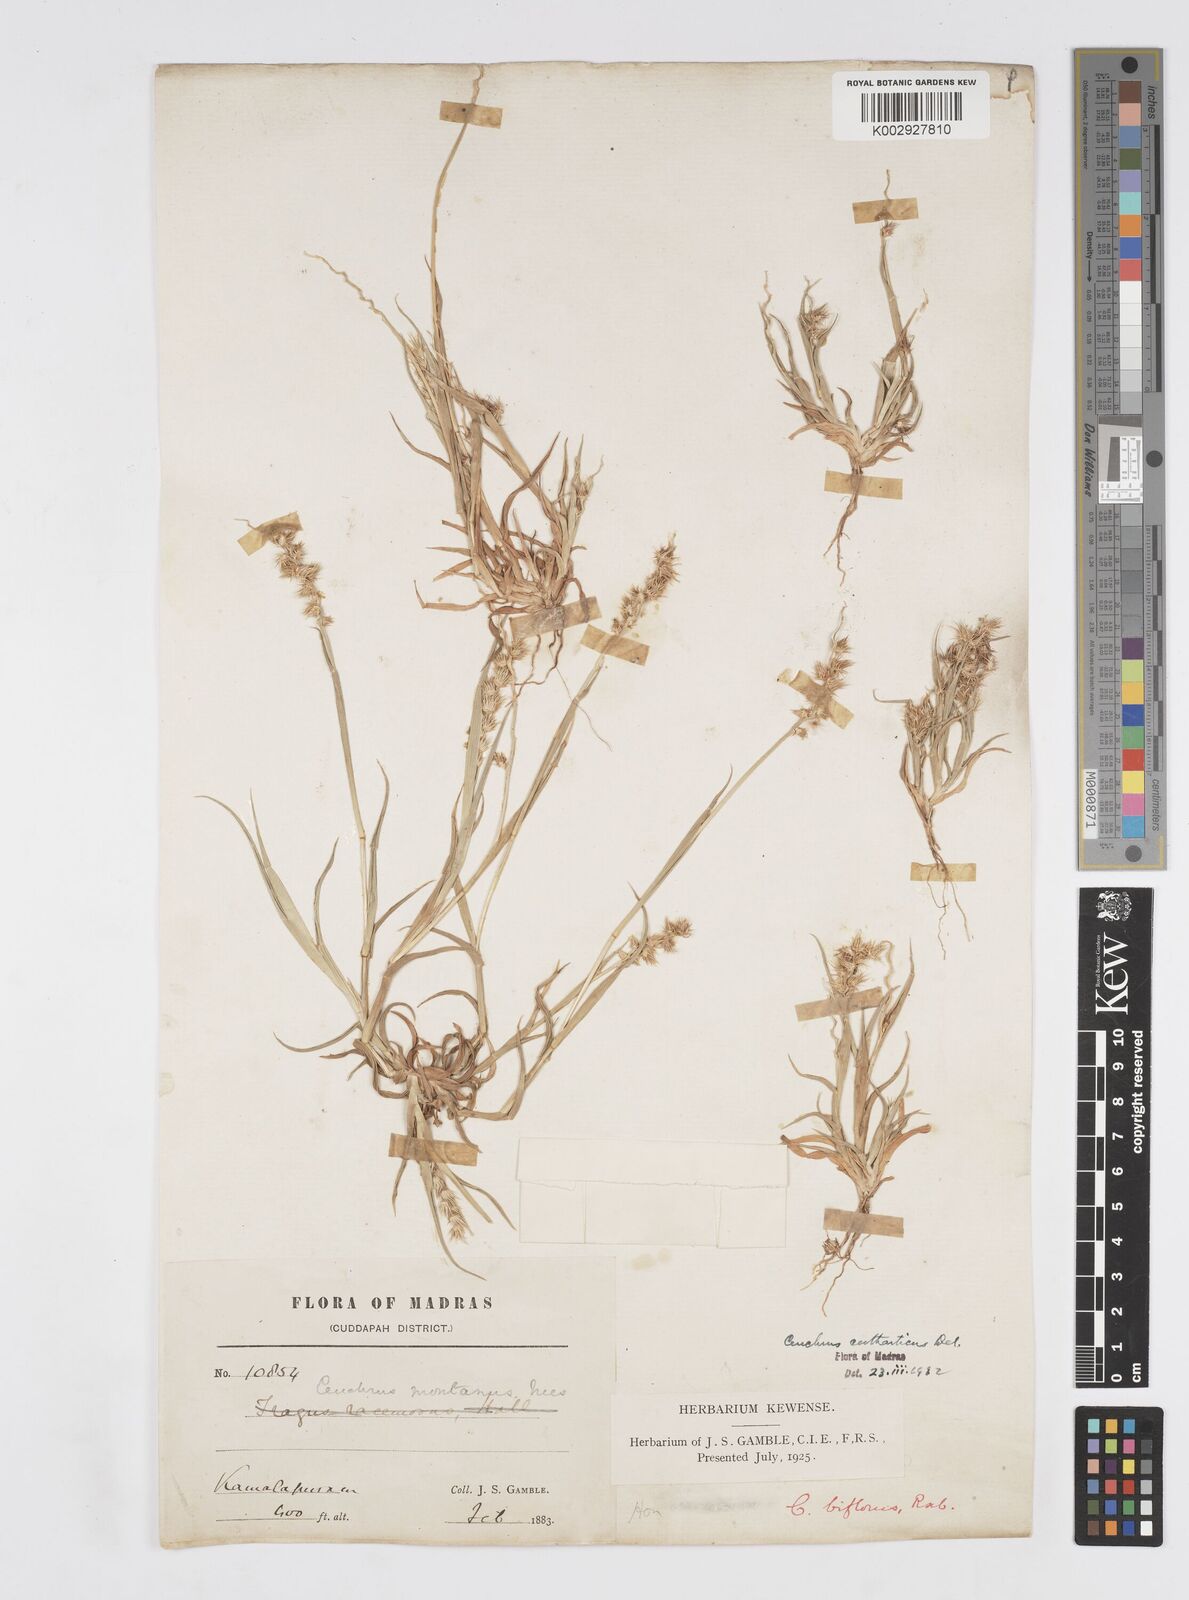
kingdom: Plantae
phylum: Tracheophyta
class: Liliopsida
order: Poales
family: Poaceae
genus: Cenchrus
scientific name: Cenchrus biflorus
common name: Indian sandbur
